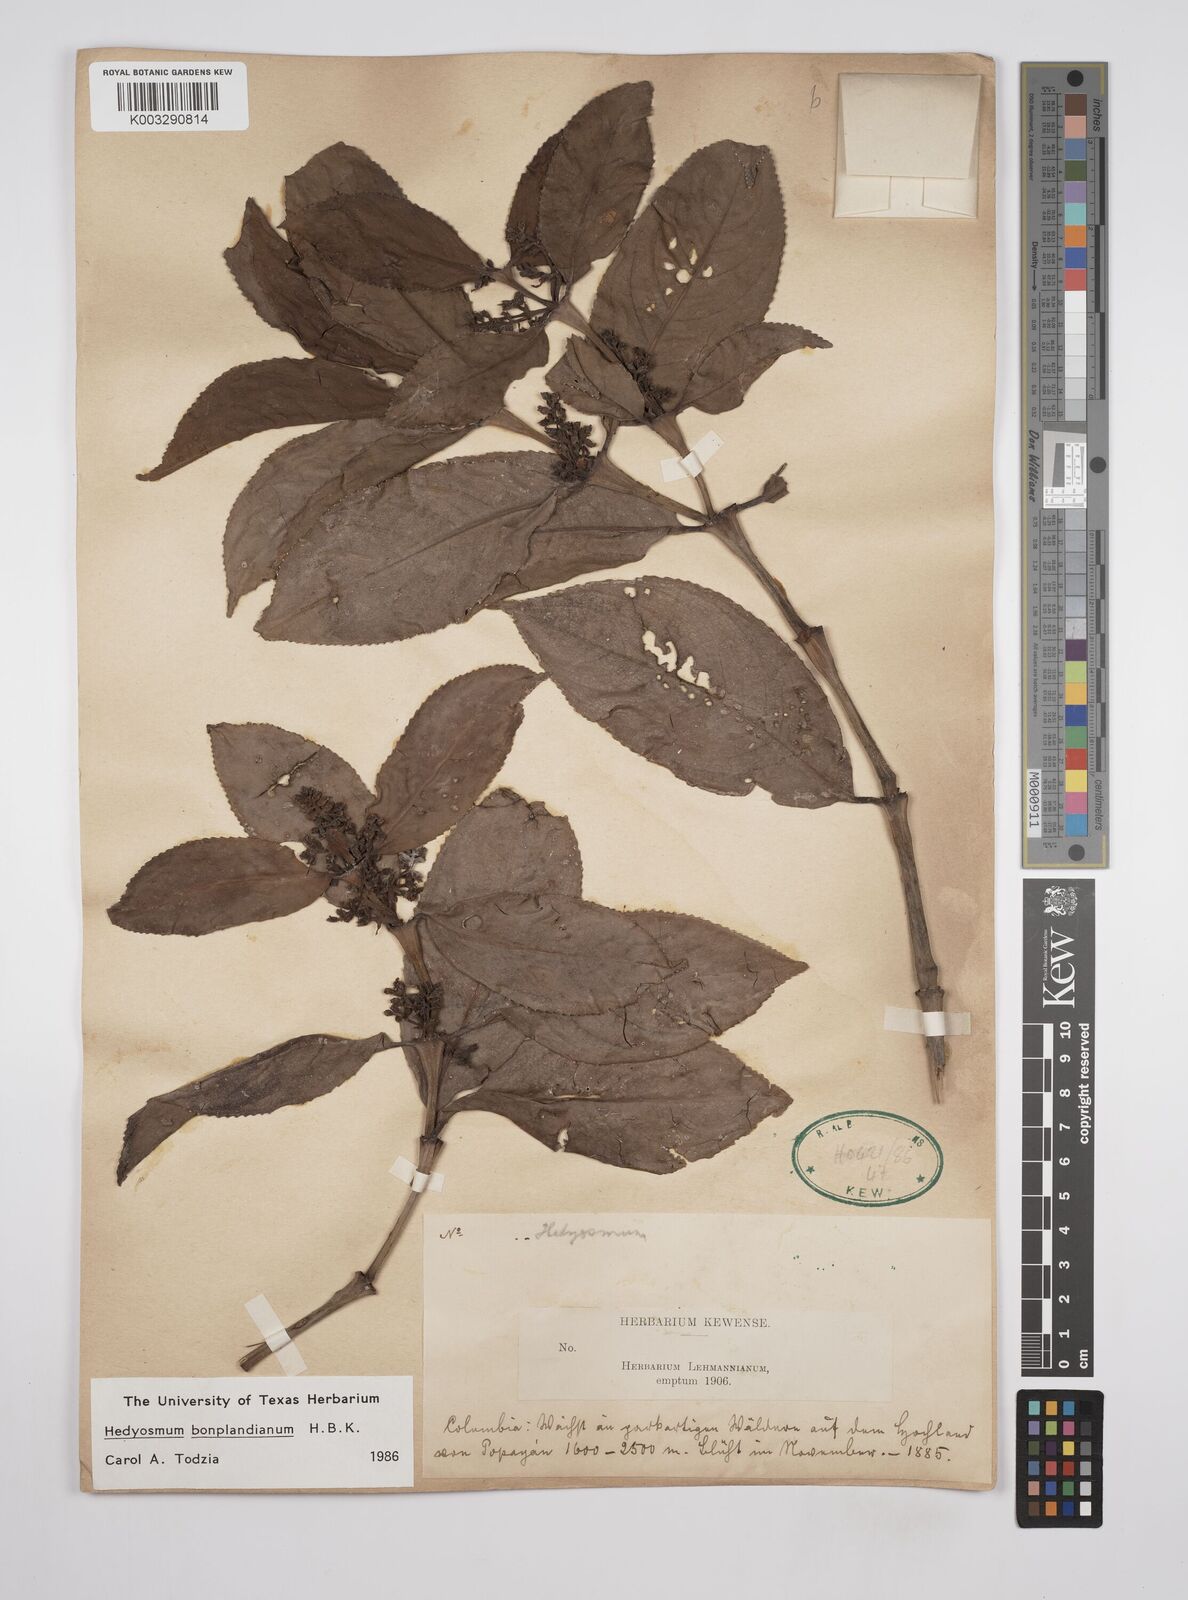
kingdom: Plantae
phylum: Tracheophyta
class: Magnoliopsida
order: Chloranthales
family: Chloranthaceae
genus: Hedyosmum
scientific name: Hedyosmum
